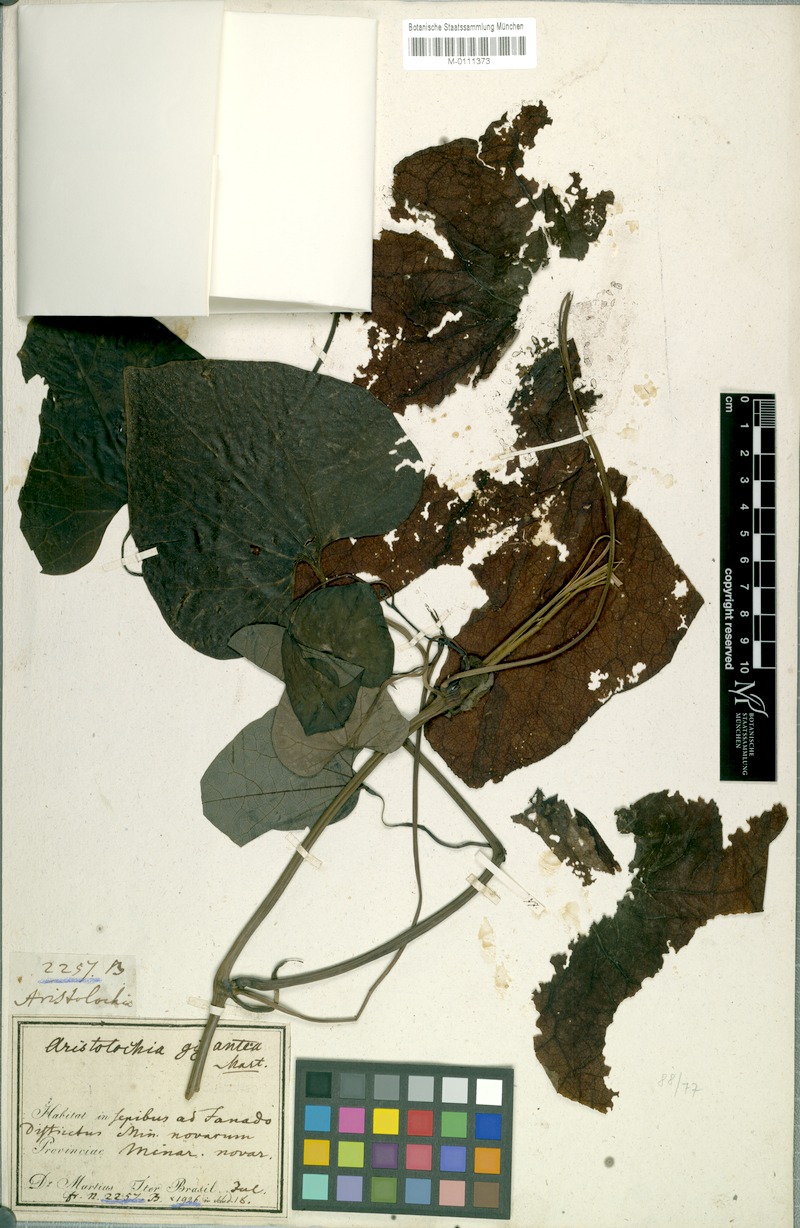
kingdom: Plantae
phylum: Tracheophyta
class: Magnoliopsida
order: Piperales
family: Aristolochiaceae
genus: Aristolochia
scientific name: Aristolochia gigantea
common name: Duckflower
